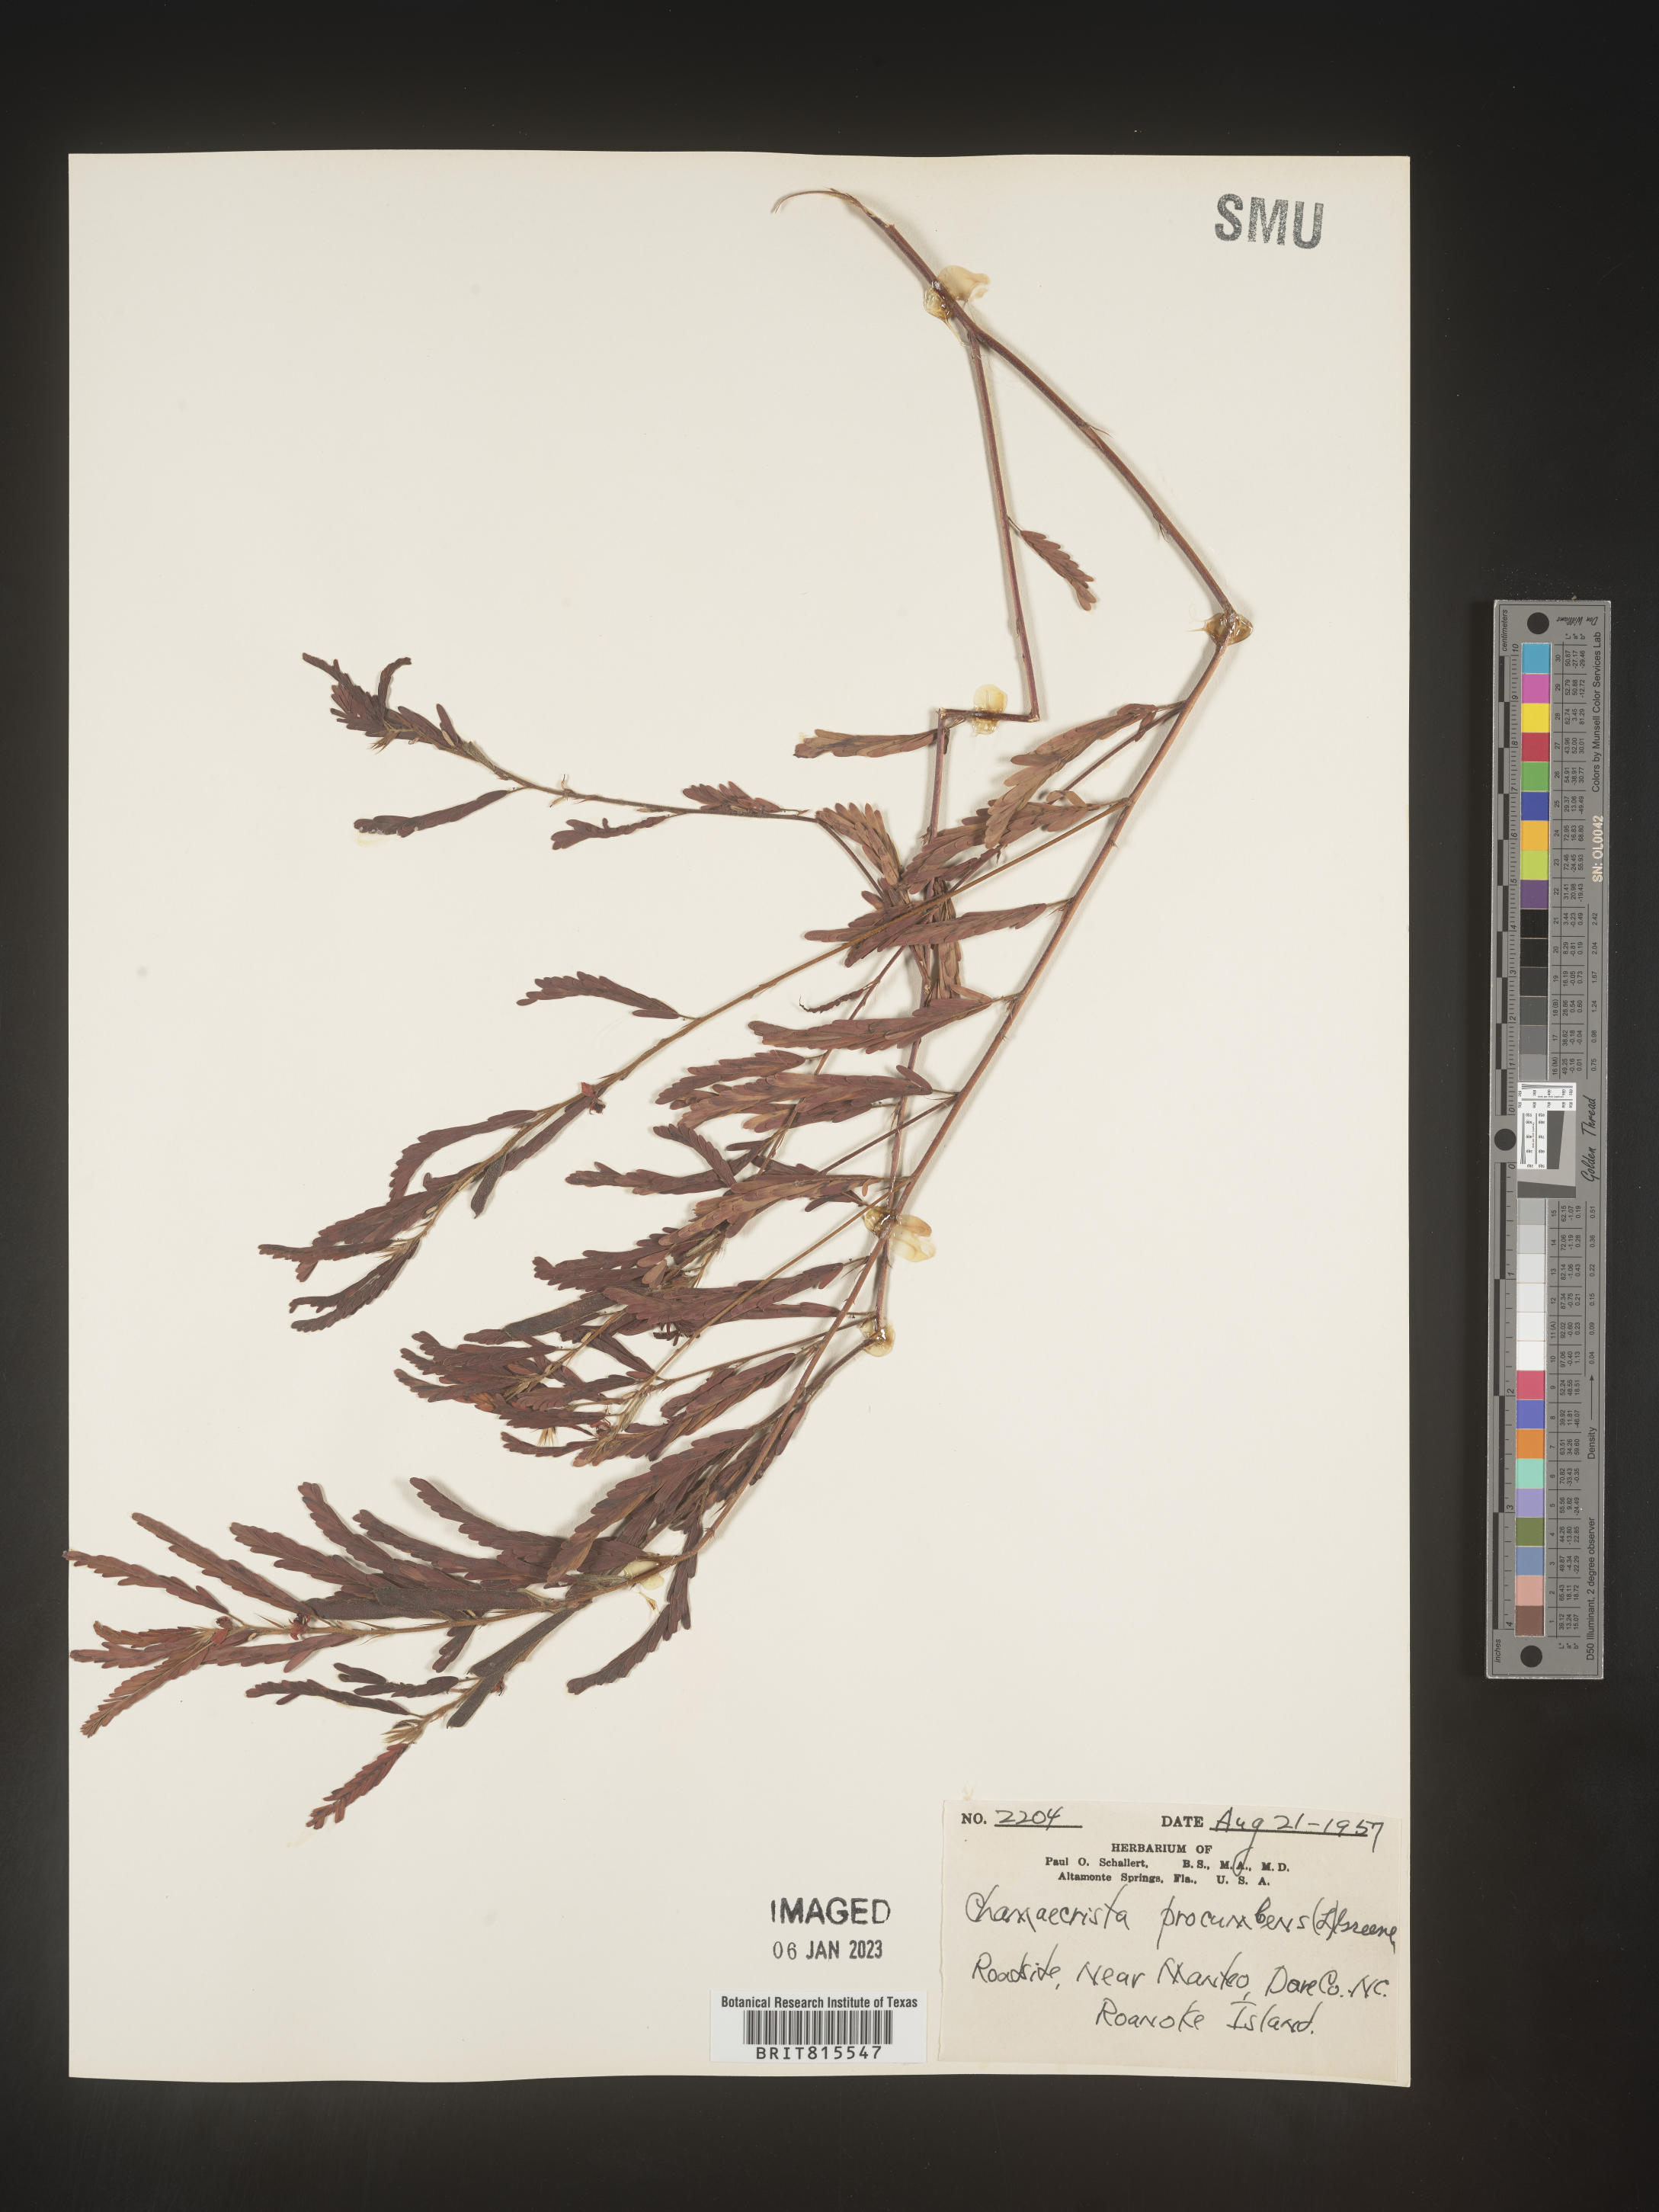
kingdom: Plantae
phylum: Tracheophyta
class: Magnoliopsida
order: Fabales
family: Fabaceae
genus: Chamaecrista
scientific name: Chamaecrista nictitans
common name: Sensitive cassia
